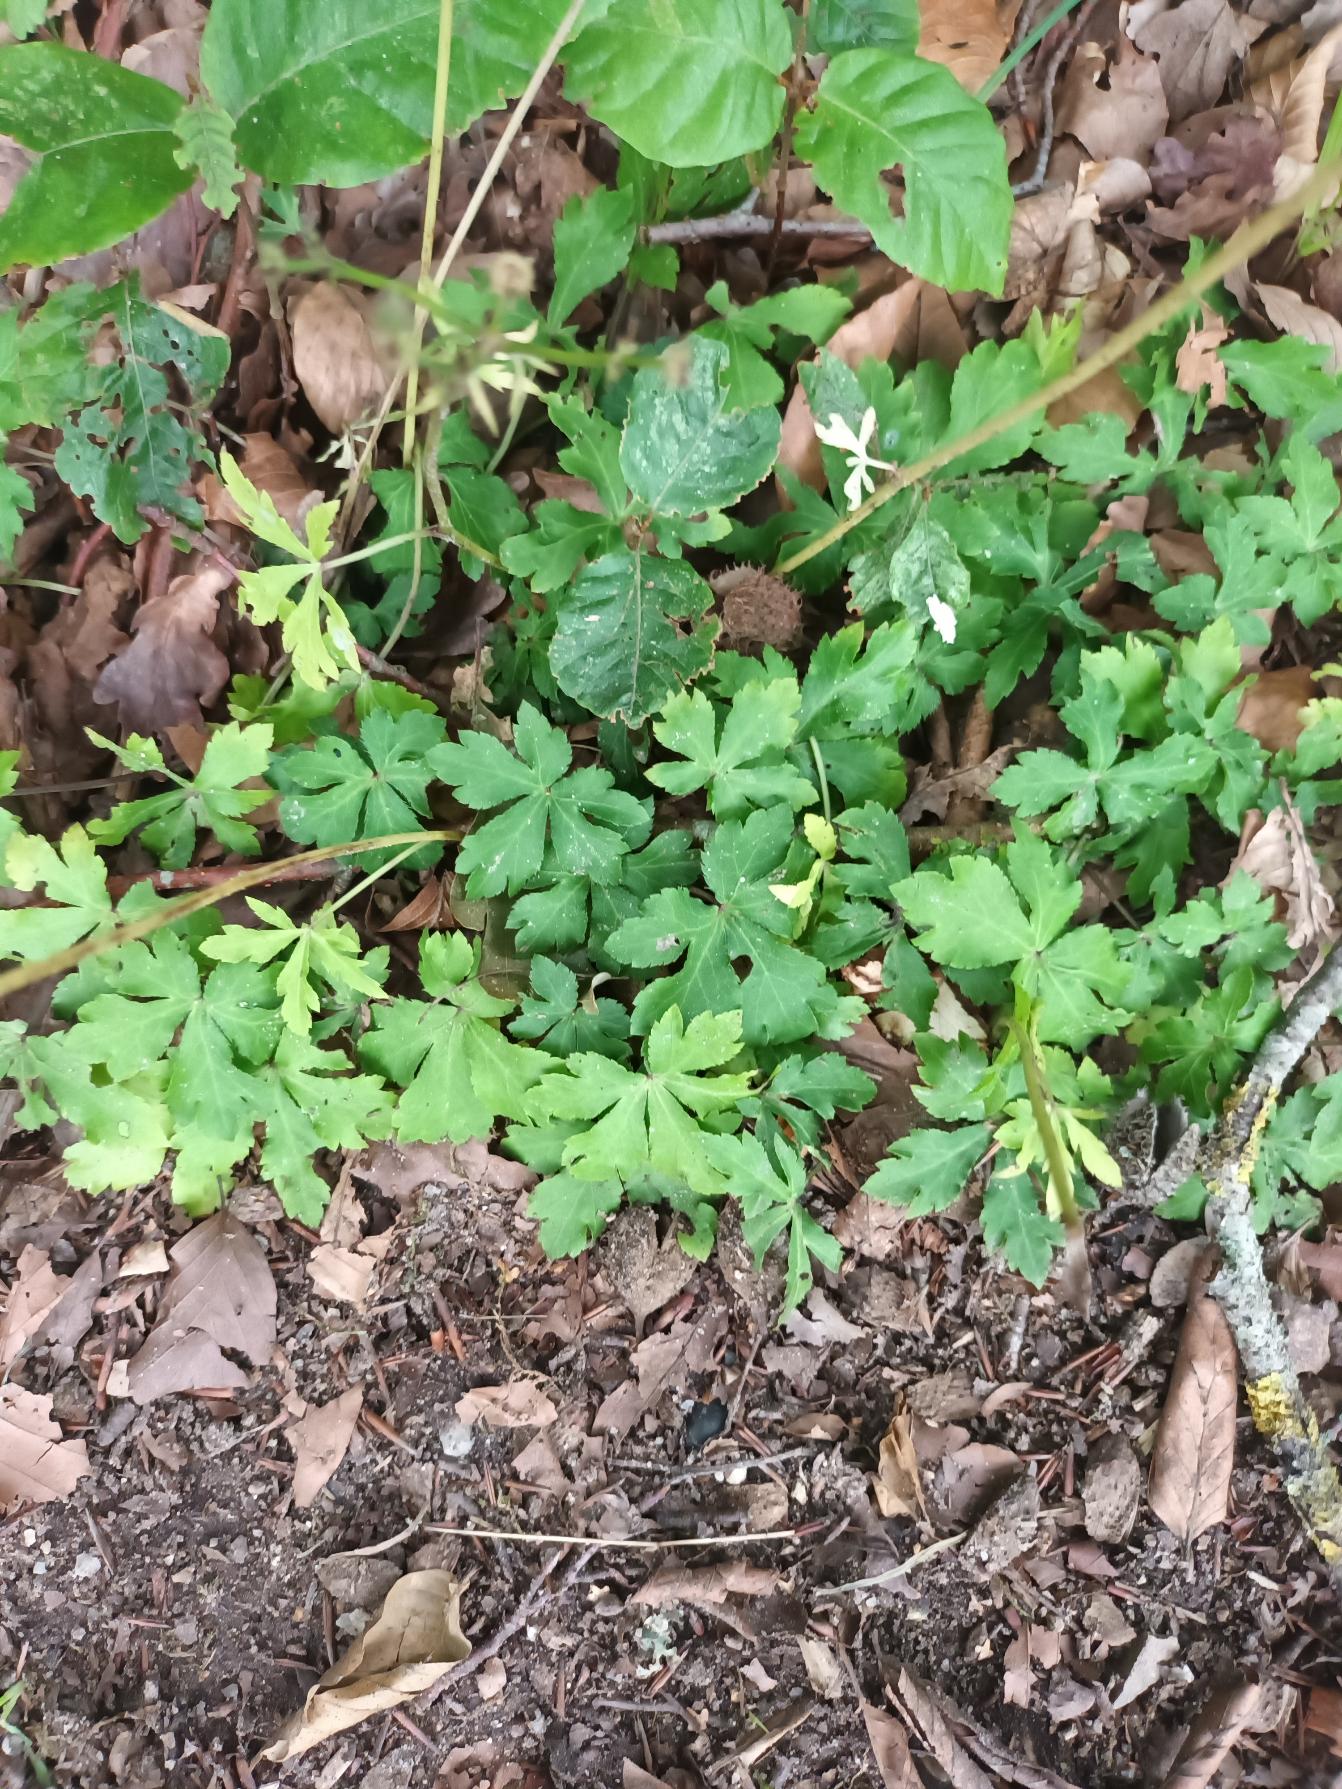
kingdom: Plantae
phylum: Tracheophyta
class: Magnoliopsida
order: Apiales
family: Apiaceae
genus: Sanicula
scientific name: Sanicula europaea
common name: Sanikel
